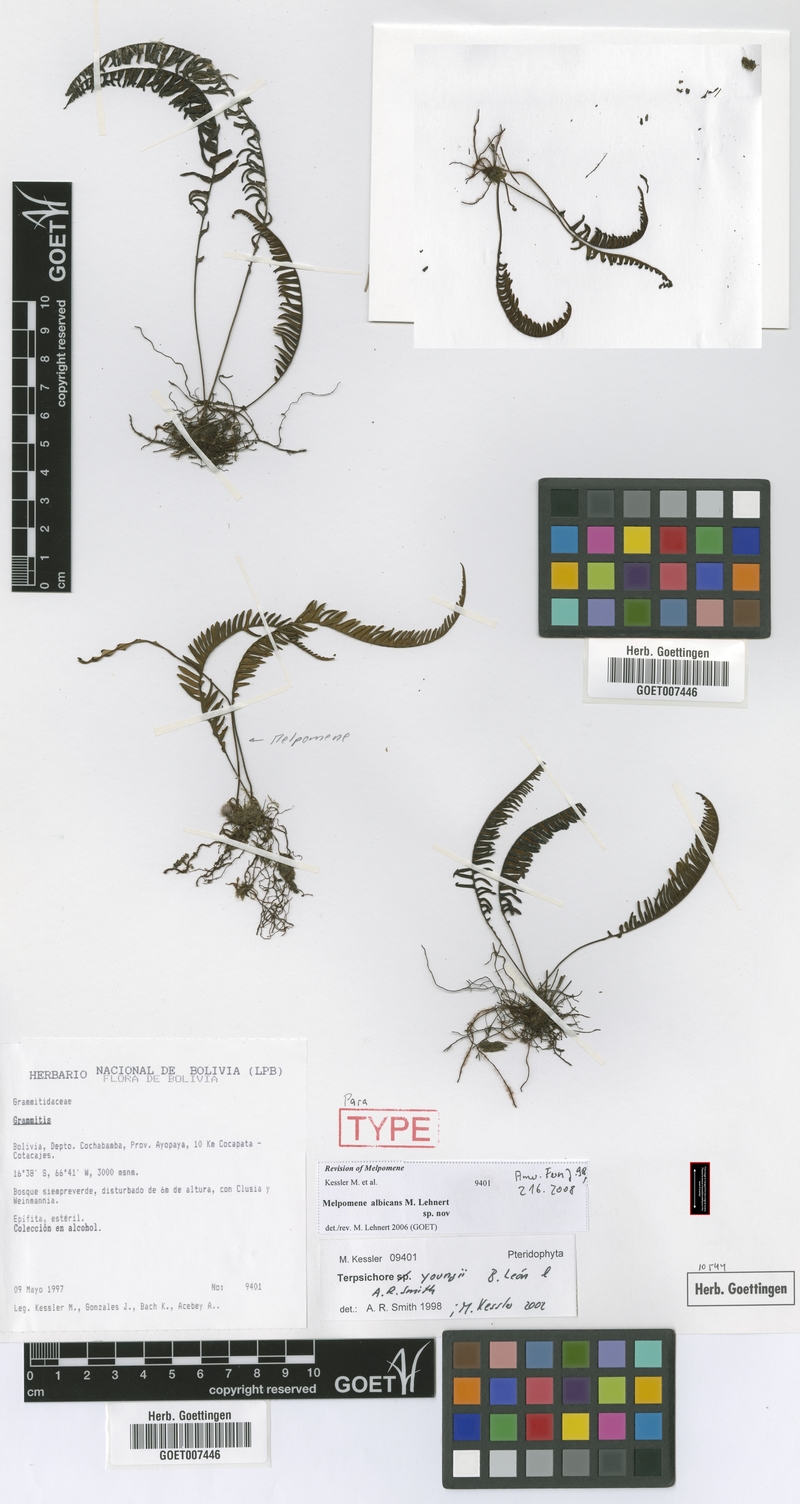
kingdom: Plantae
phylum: Tracheophyta
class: Polypodiopsida
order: Polypodiales
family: Polypodiaceae
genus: Melpomene
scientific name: Melpomene albicans
